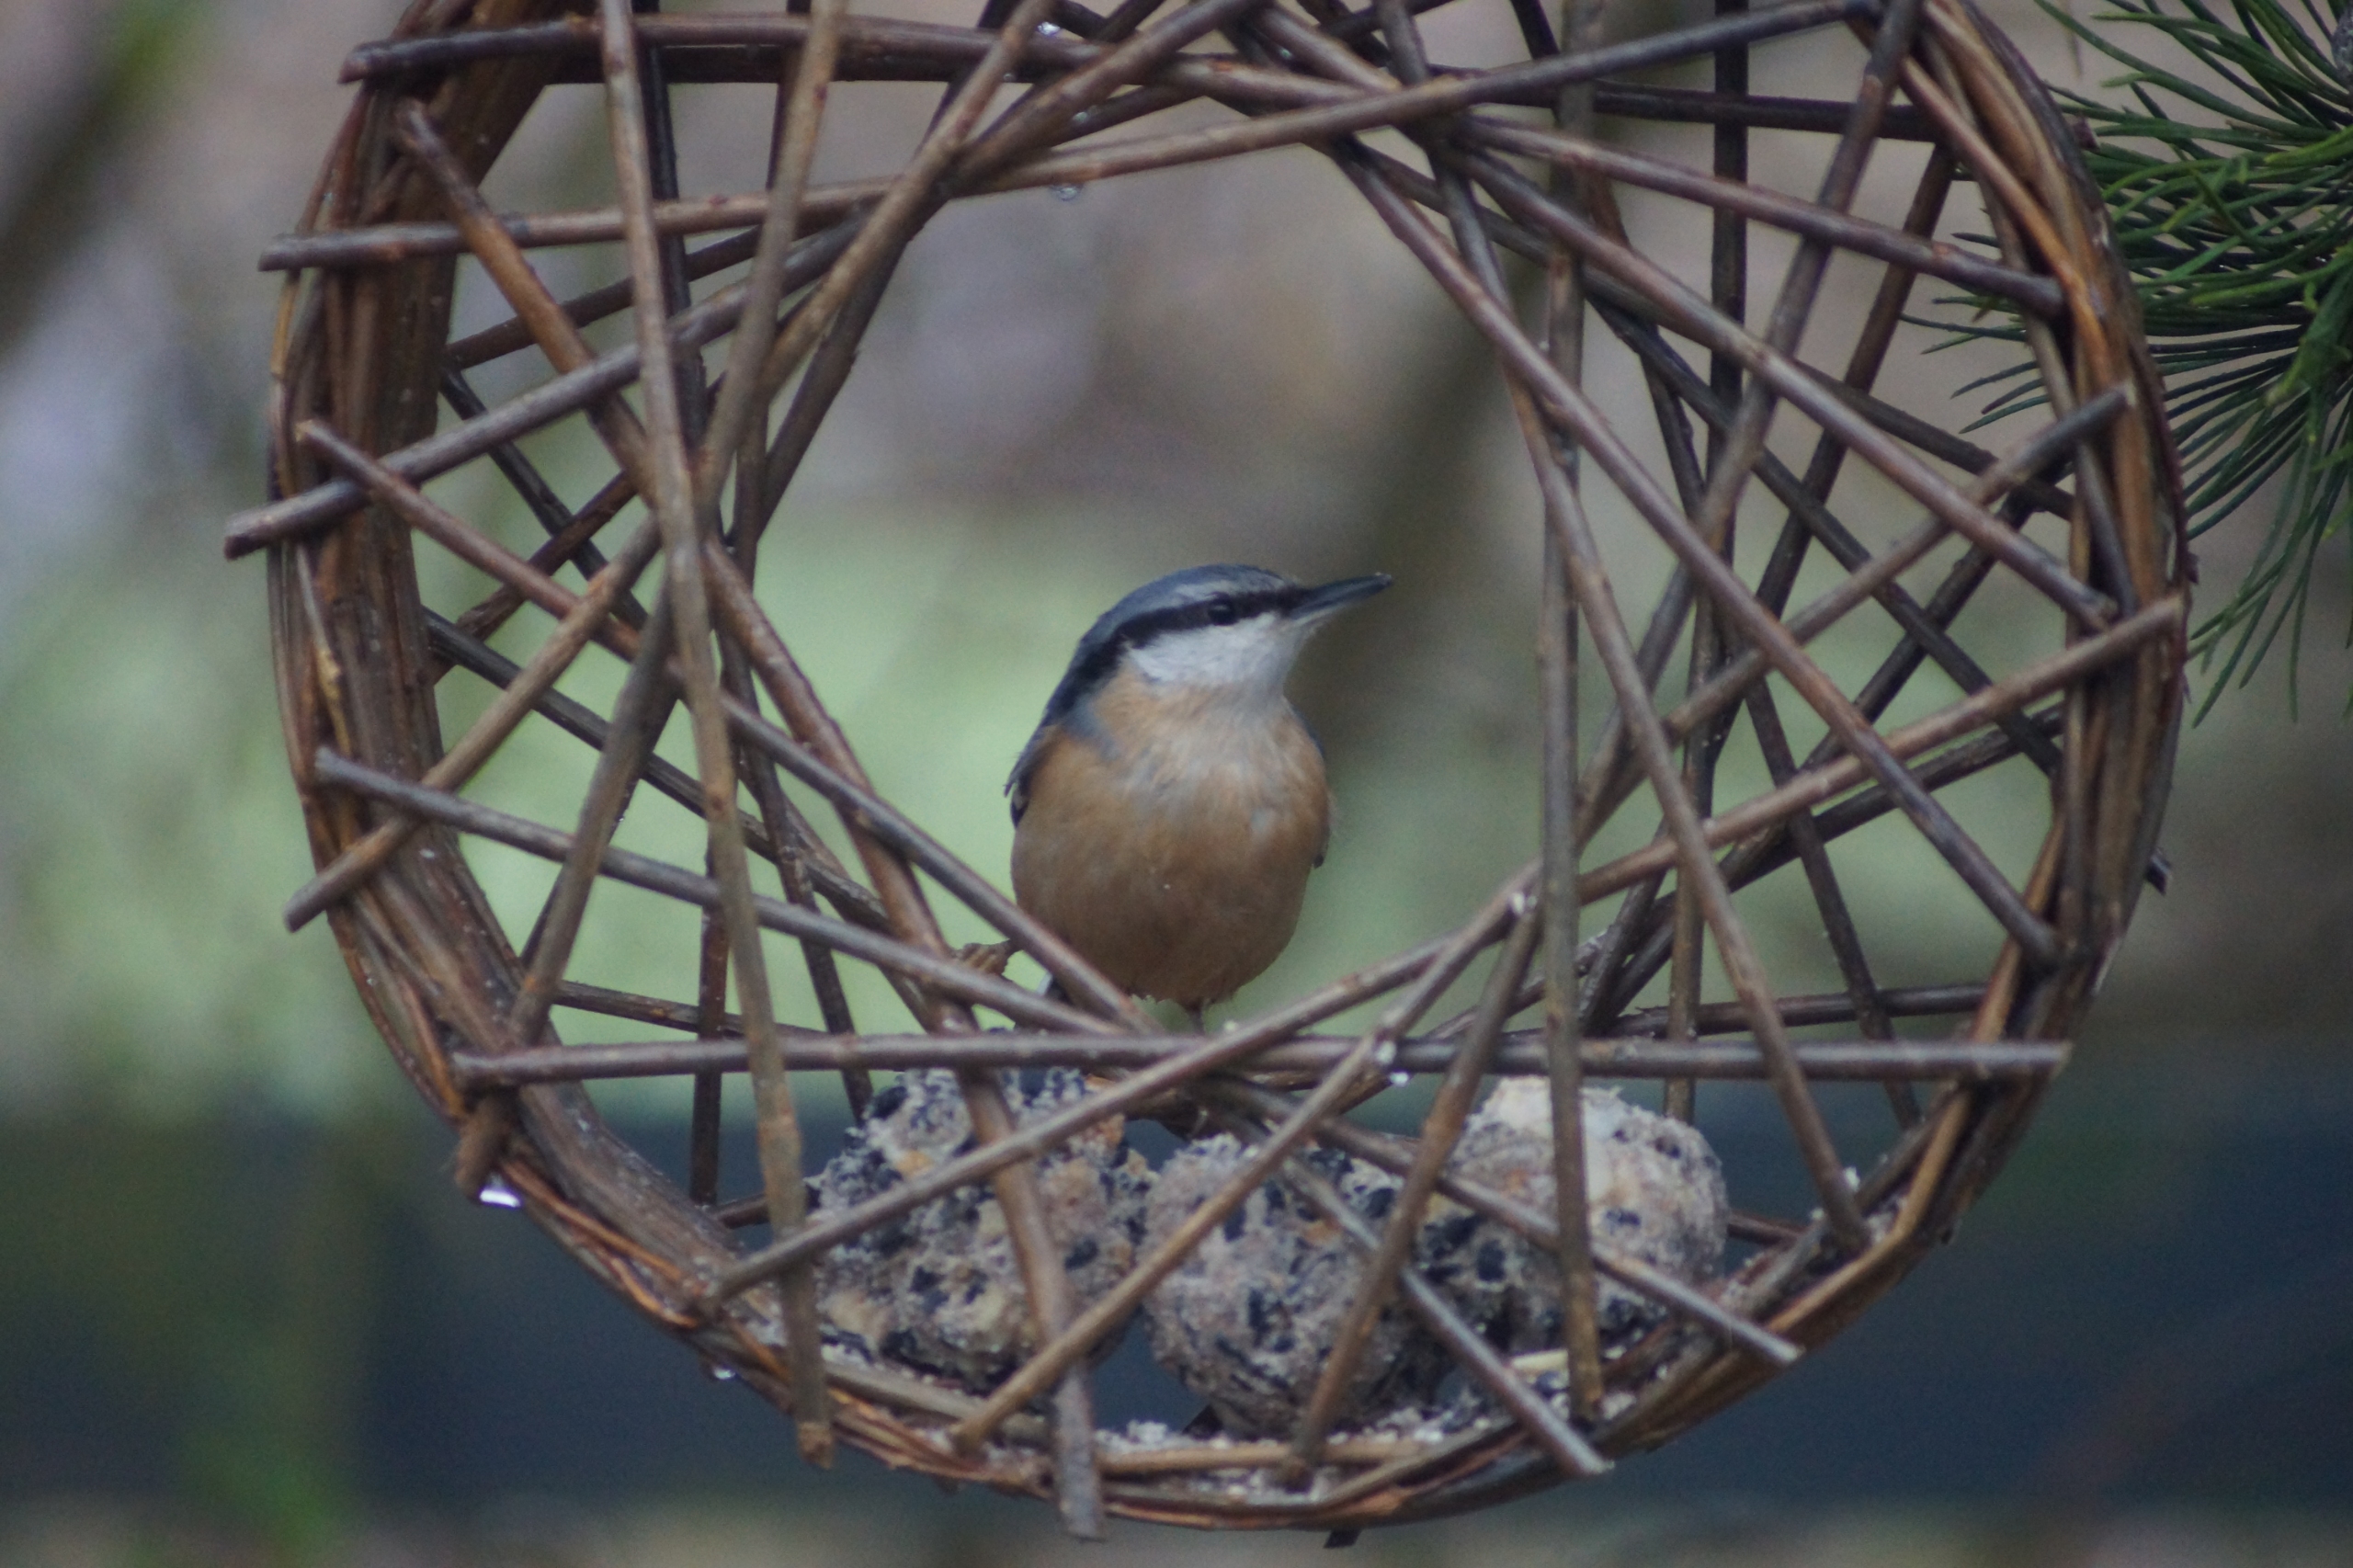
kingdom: Animalia
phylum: Chordata
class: Aves
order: Passeriformes
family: Sittidae
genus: Sitta
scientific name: Sitta europaea
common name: Spætmejse
